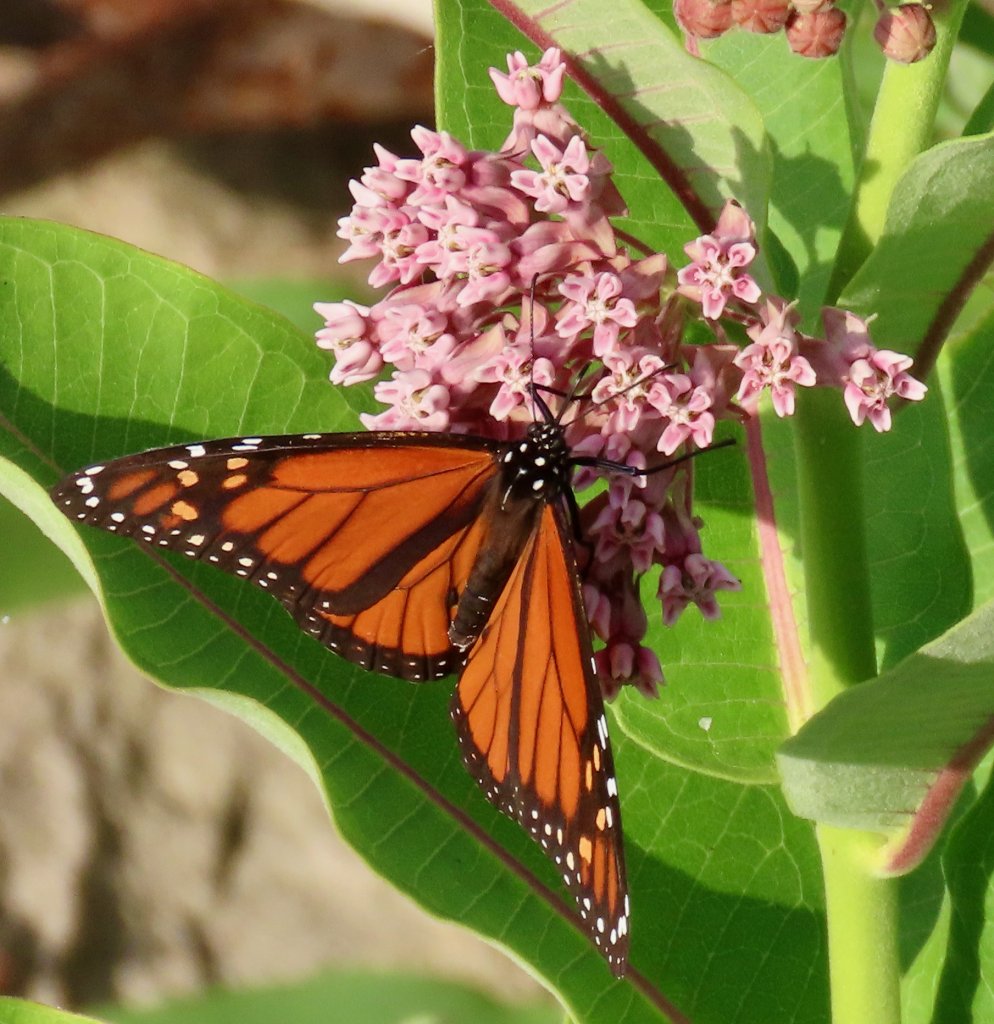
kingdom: Animalia
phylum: Arthropoda
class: Insecta
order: Lepidoptera
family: Nymphalidae
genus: Danaus
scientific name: Danaus plexippus
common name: Monarch
